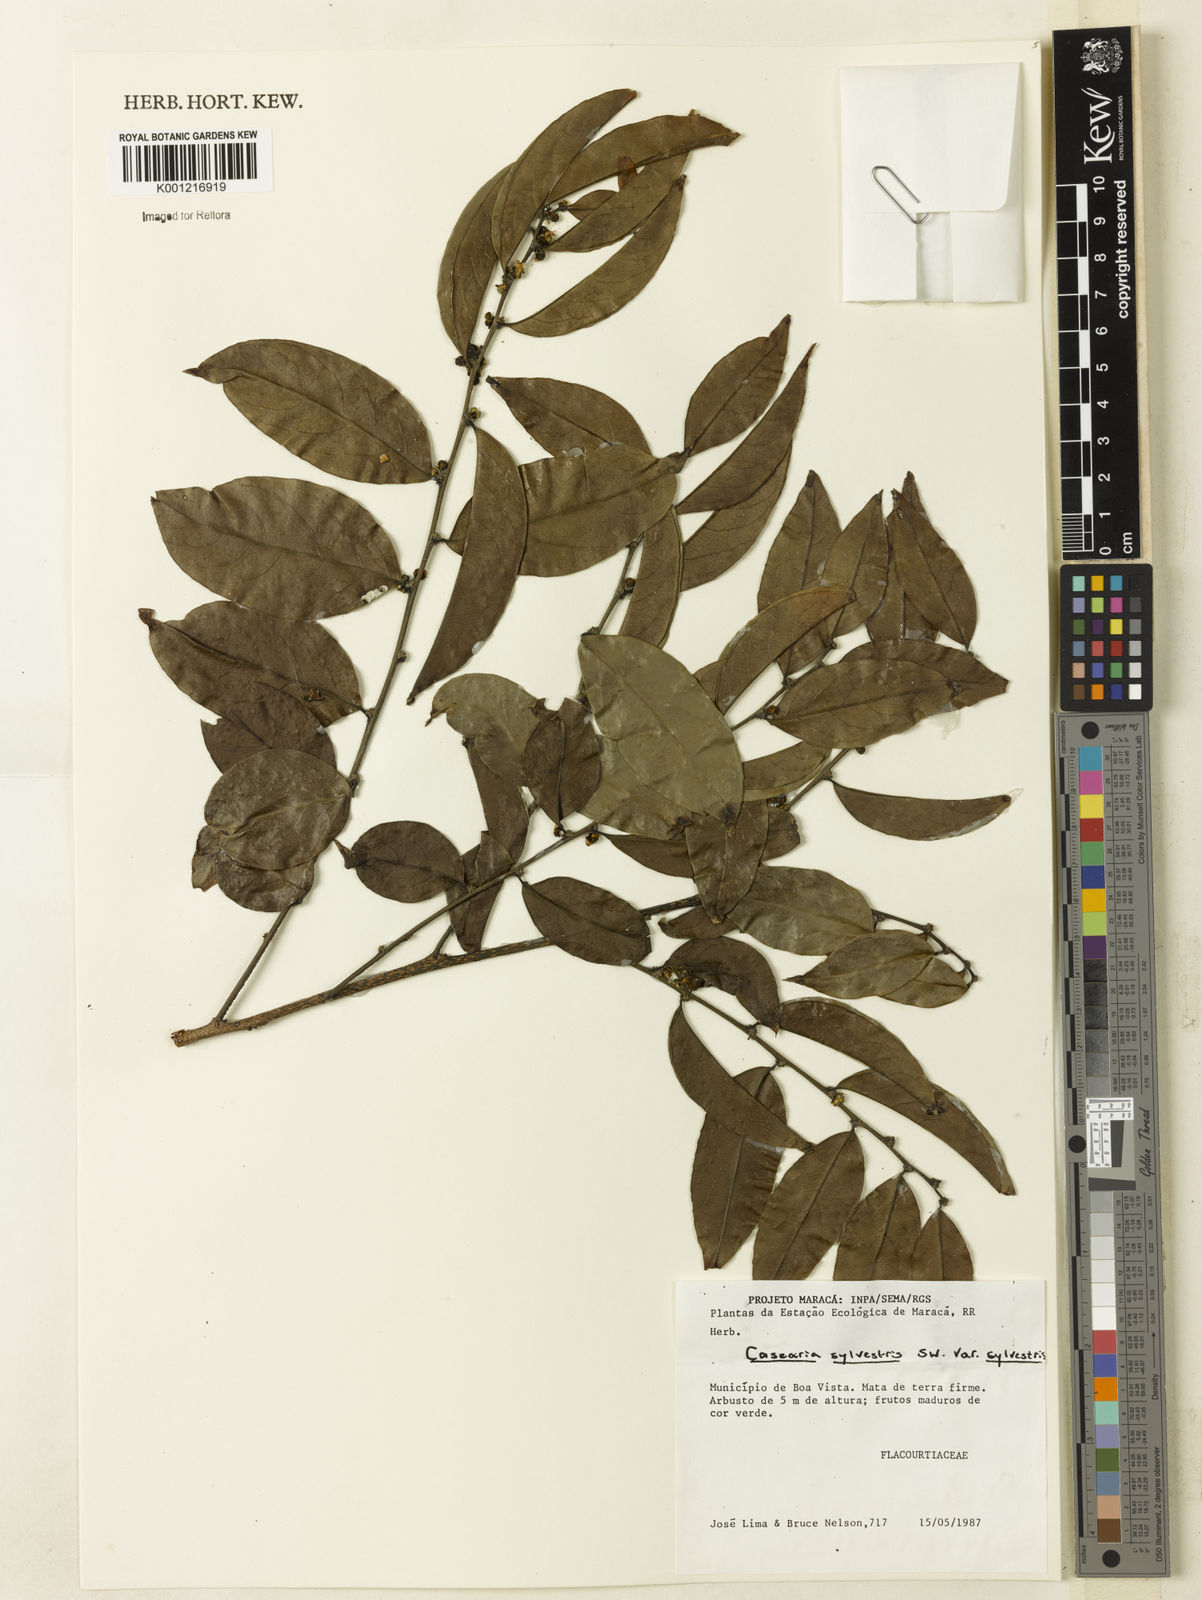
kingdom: Plantae
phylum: Tracheophyta
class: Magnoliopsida
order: Malpighiales
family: Salicaceae
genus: Casearia
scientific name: Casearia sylvestris
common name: Wild sage
